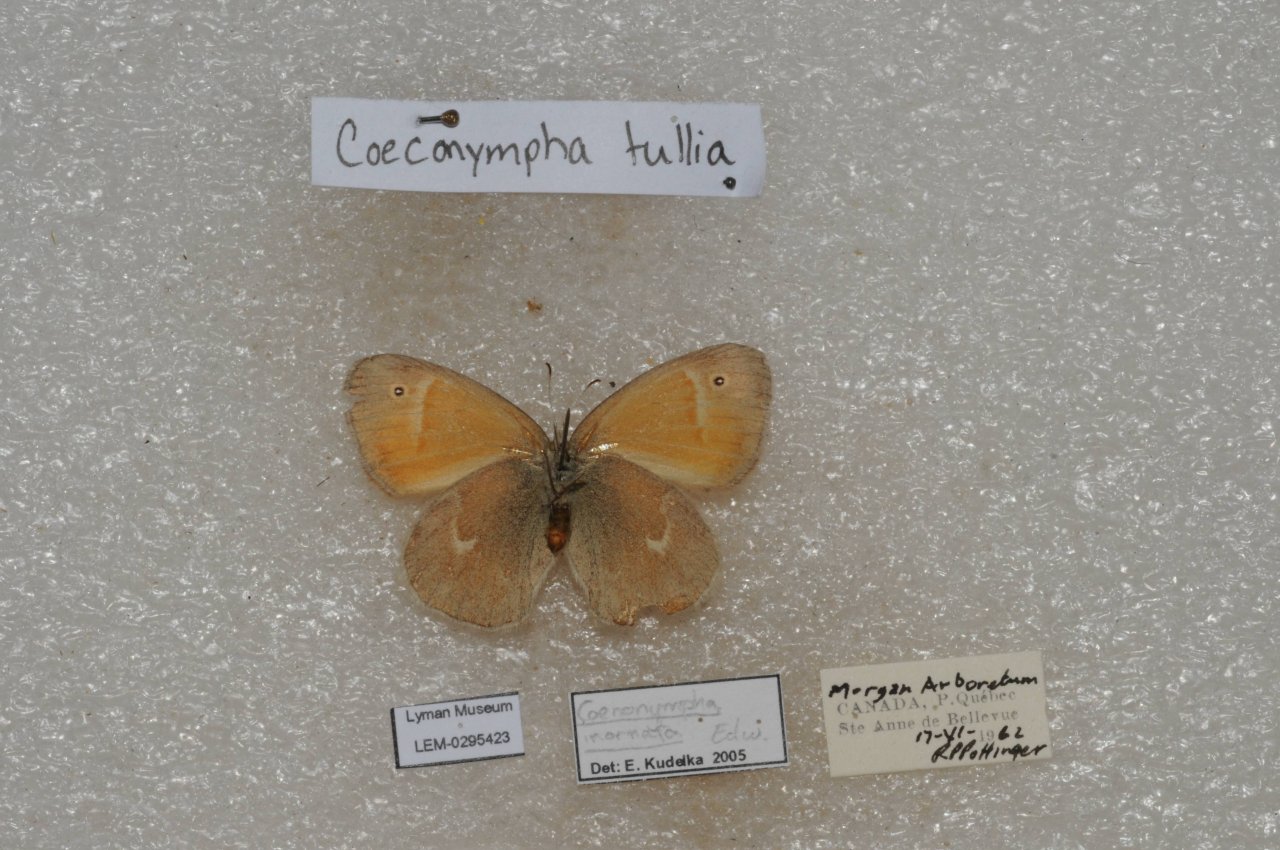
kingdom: Animalia
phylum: Arthropoda
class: Insecta
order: Lepidoptera
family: Nymphalidae
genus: Coenonympha
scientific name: Coenonympha tullia
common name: Large Heath
